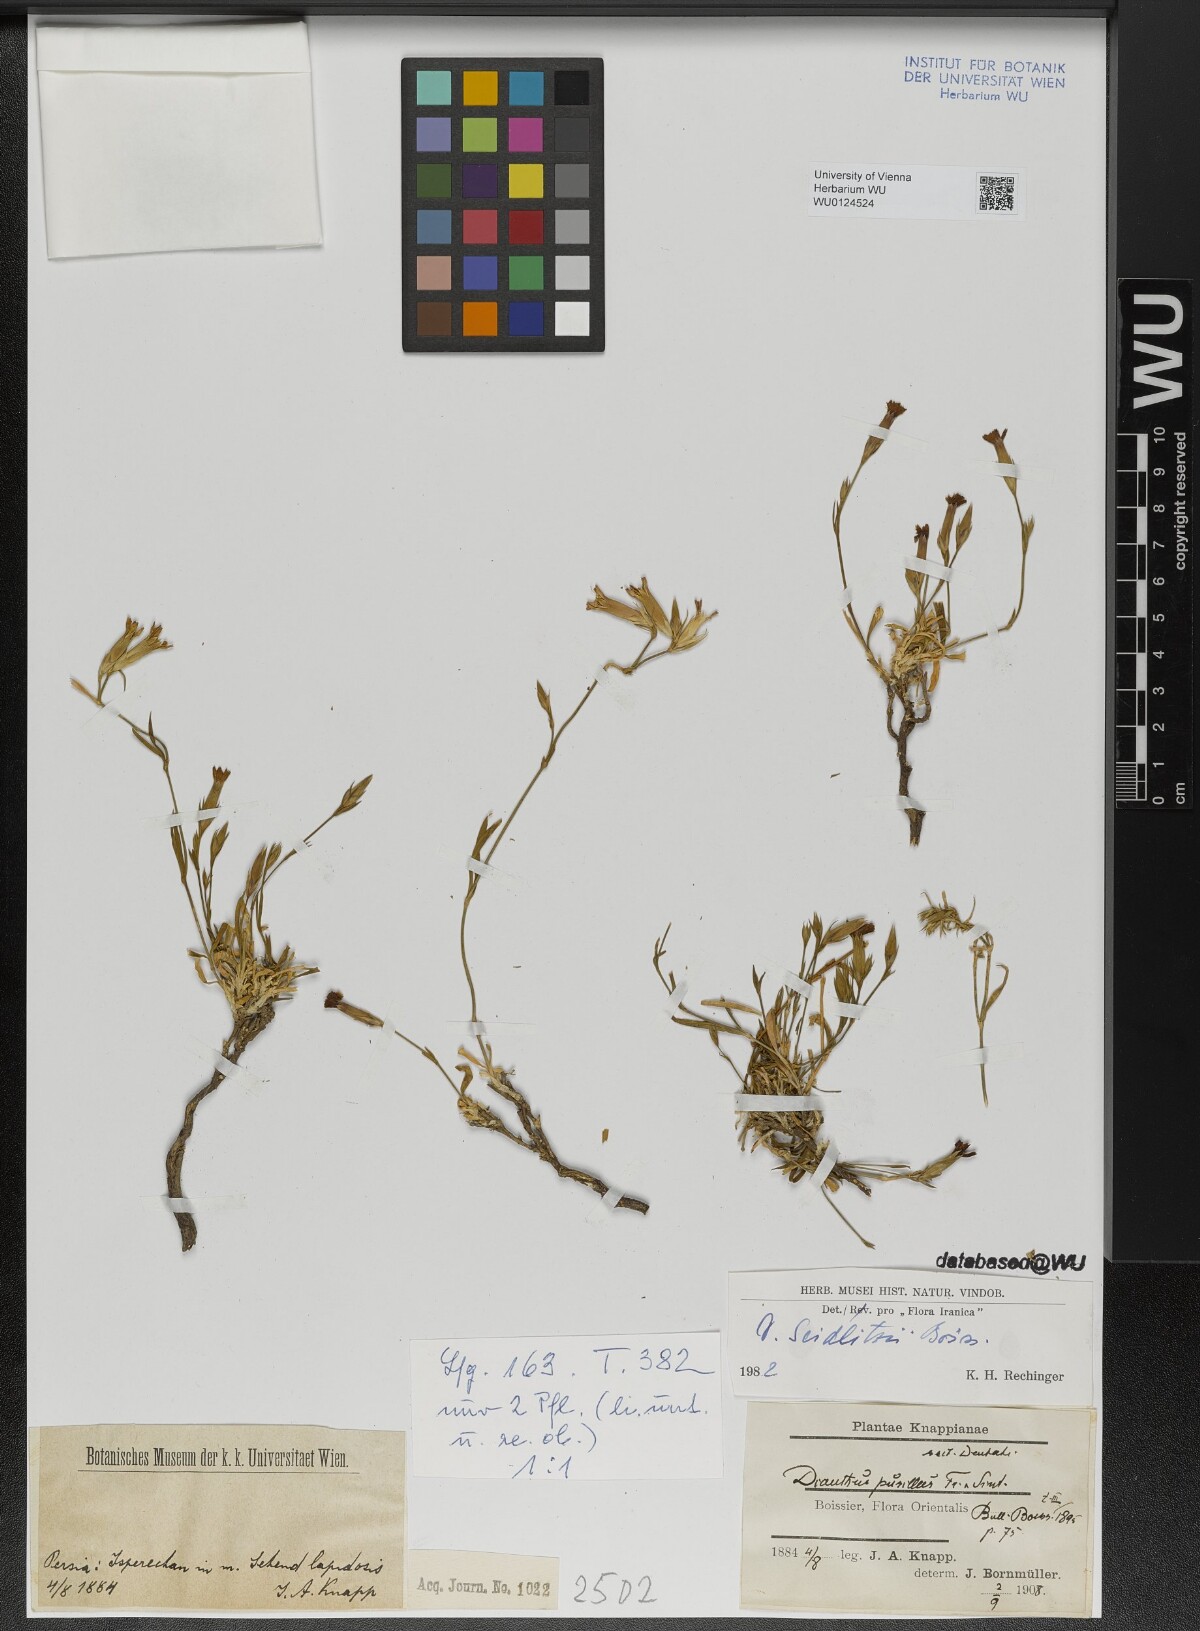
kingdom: Plantae
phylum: Tracheophyta
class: Magnoliopsida
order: Caryophyllales
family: Caryophyllaceae
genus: Dianthus
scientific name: Dianthus seidlitzii
